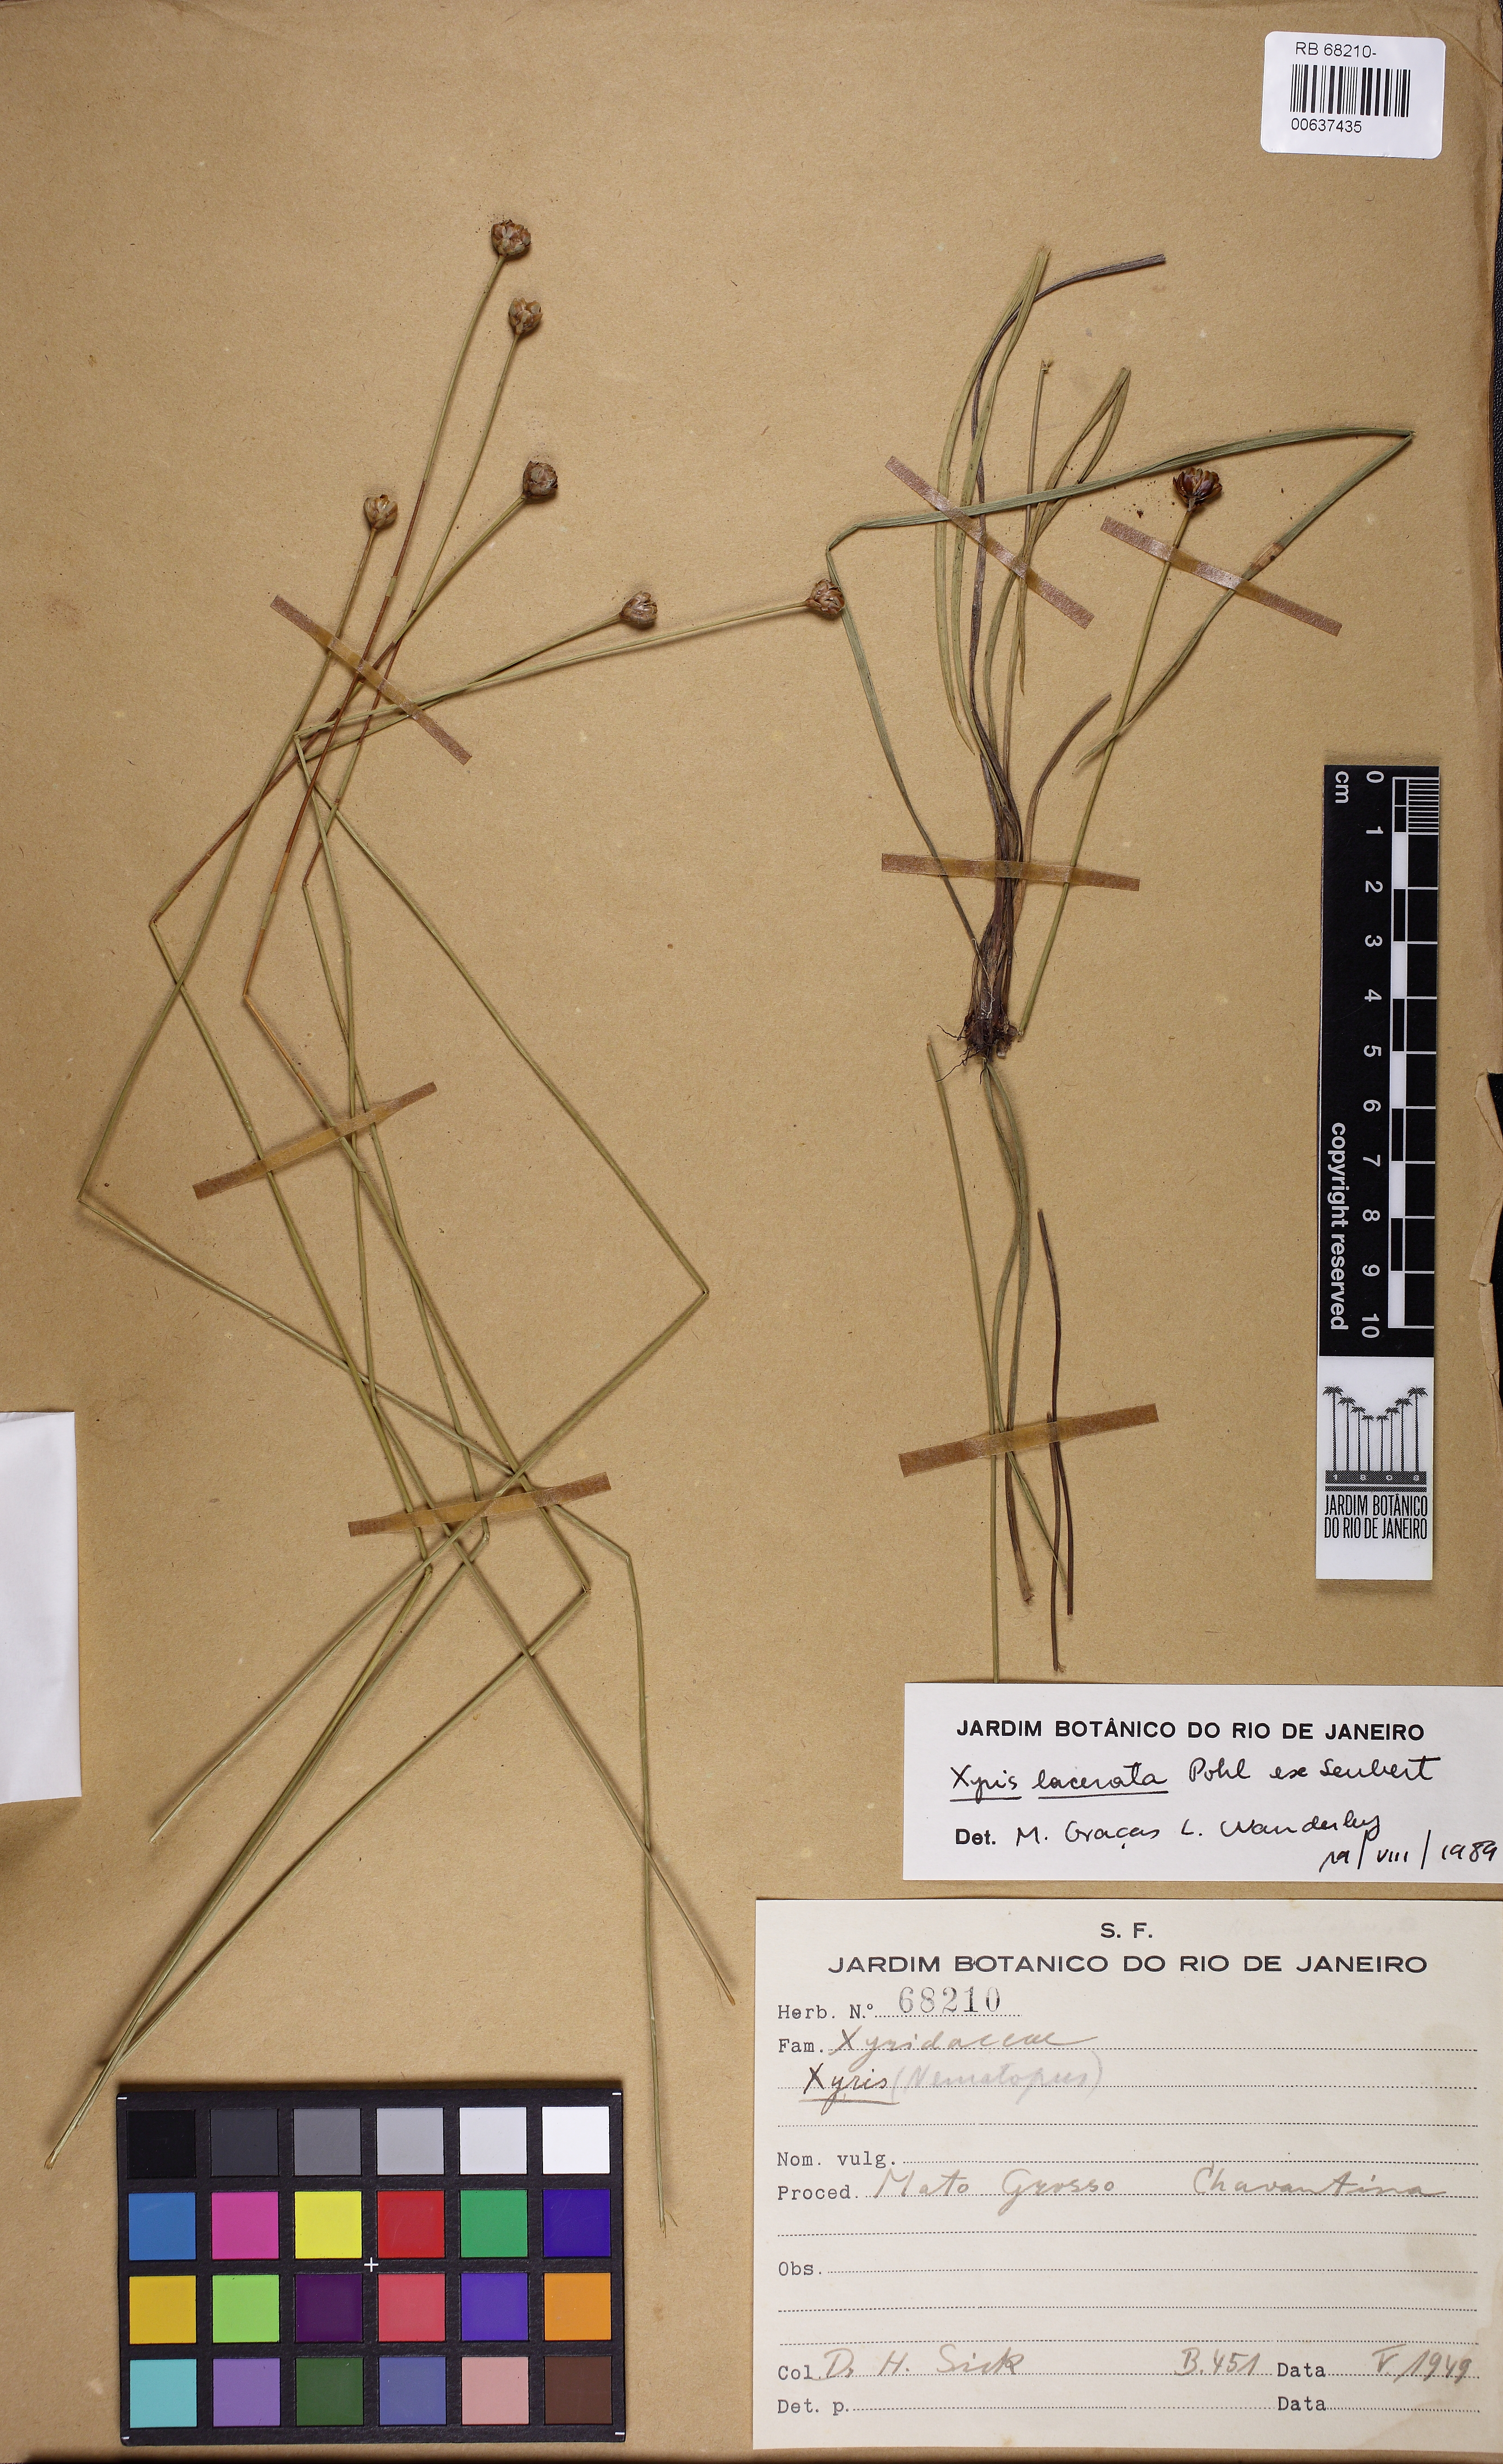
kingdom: Plantae
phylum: Tracheophyta
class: Liliopsida
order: Poales
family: Xyridaceae
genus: Xyris
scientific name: Xyris lacerata
